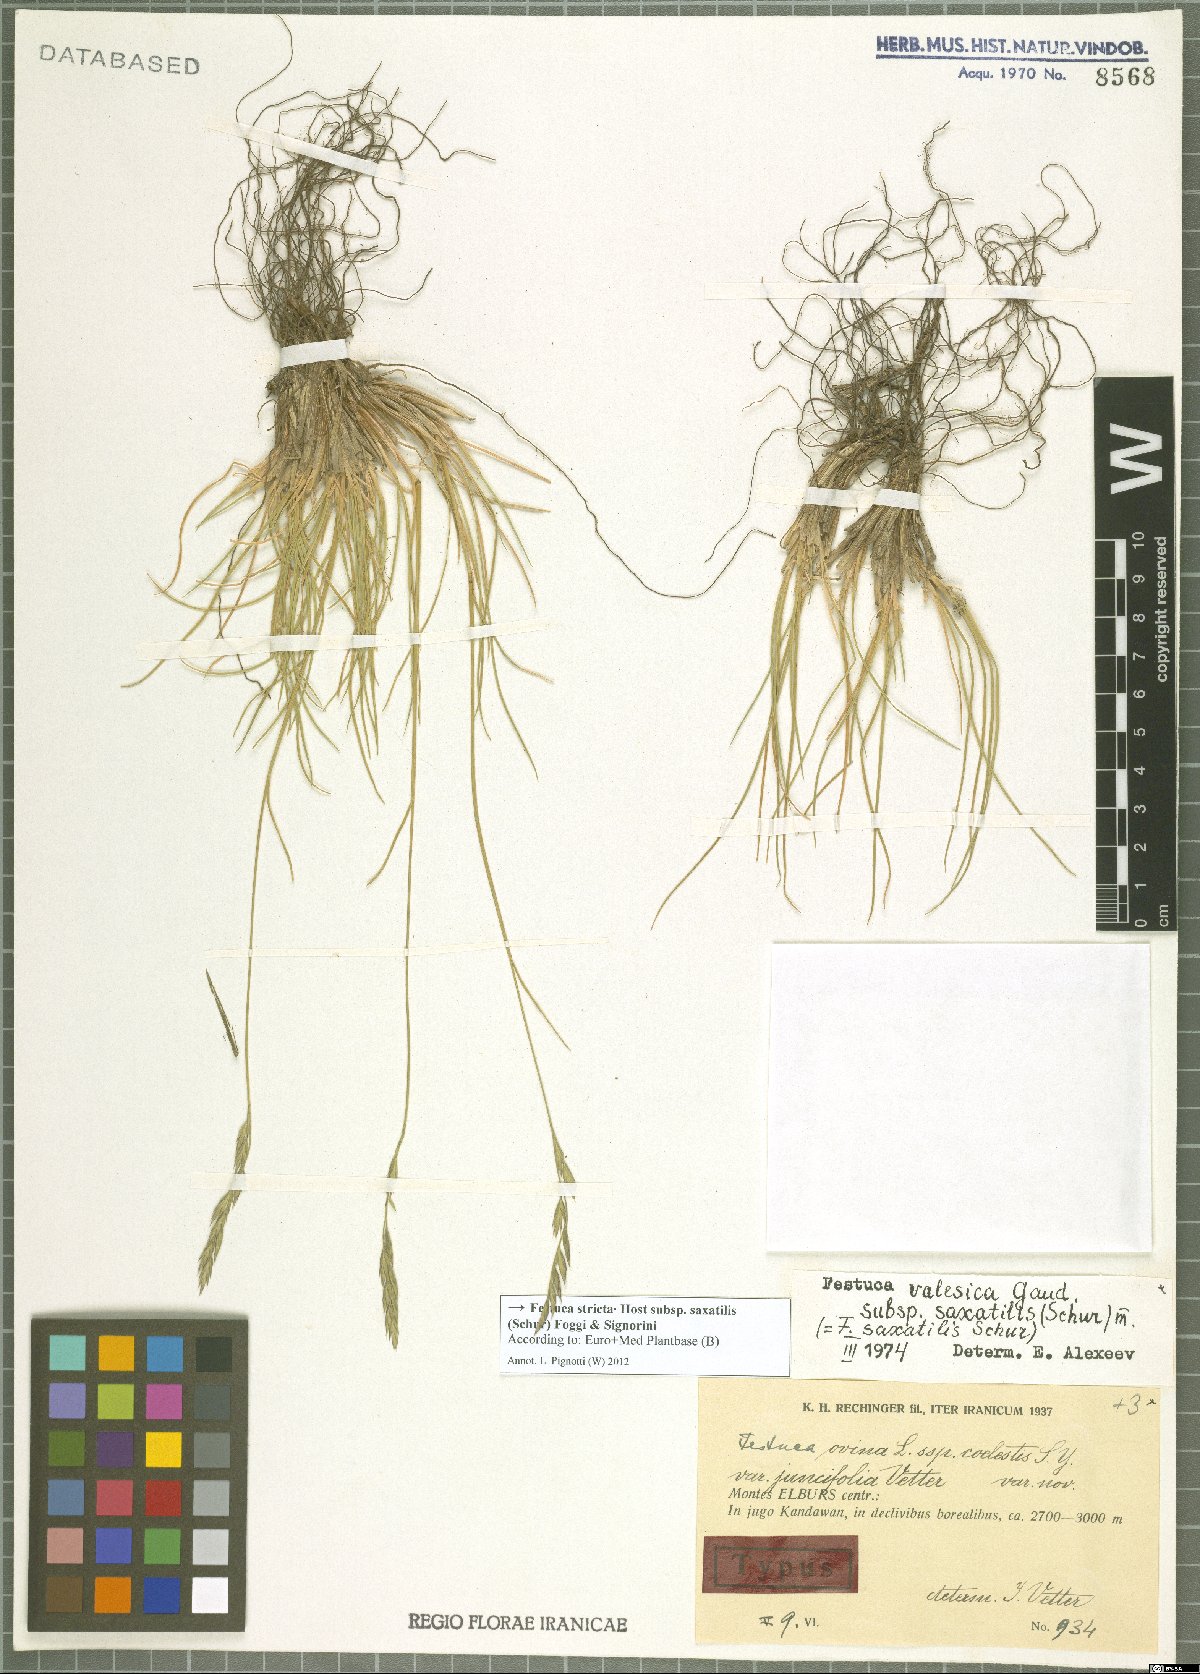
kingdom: Plantae
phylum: Tracheophyta
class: Liliopsida
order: Poales
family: Poaceae
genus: Festuca
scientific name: Festuca saxatilis
